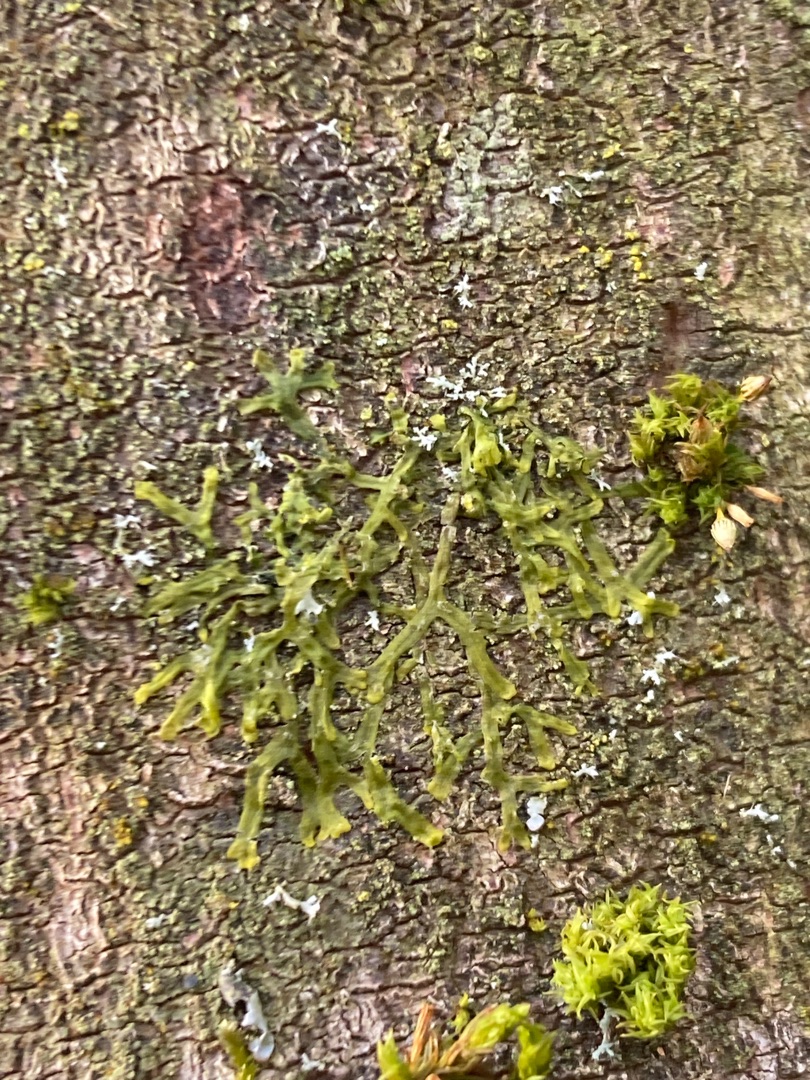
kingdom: Plantae
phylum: Marchantiophyta
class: Jungermanniopsida
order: Metzgeriales
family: Metzgeriaceae
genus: Metzgeria
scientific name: Metzgeria furcata
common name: Almindelig gaffelløv
